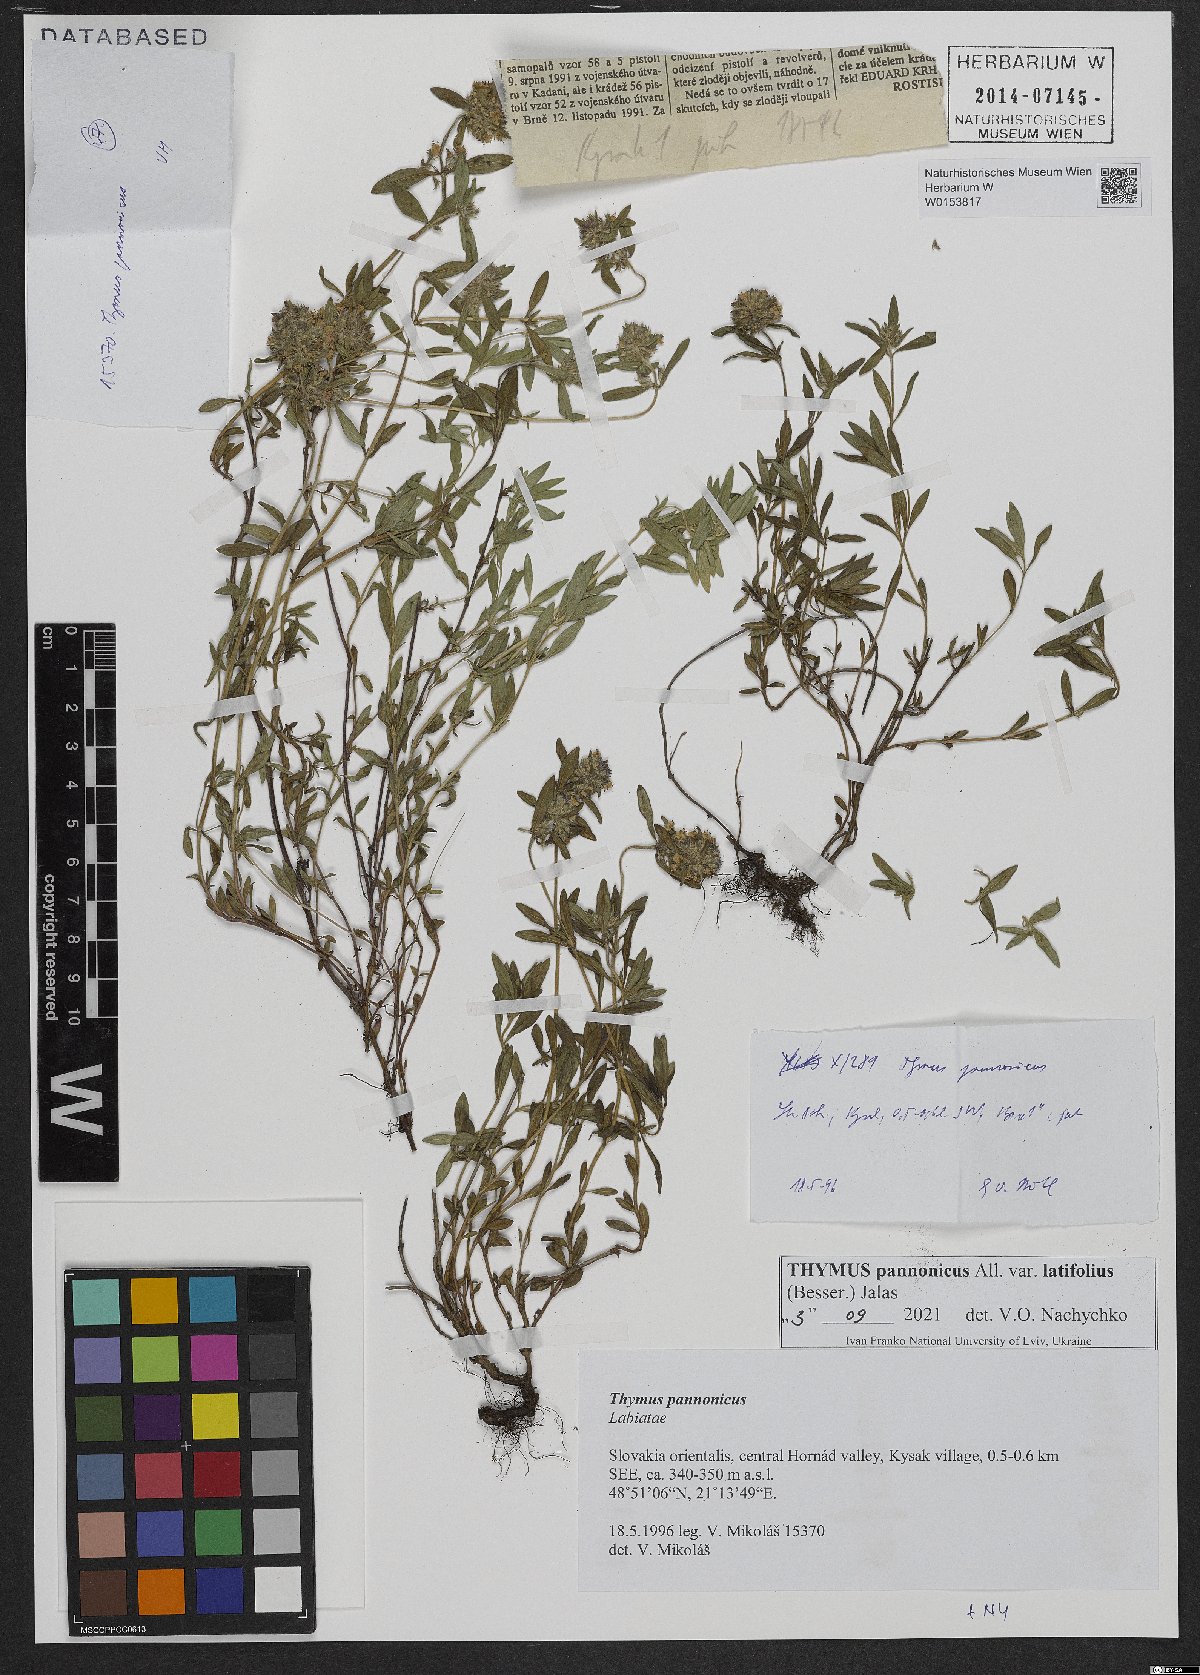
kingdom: Plantae
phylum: Tracheophyta
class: Magnoliopsida
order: Lamiales
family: Lamiaceae
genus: Thymus
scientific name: Thymus pannonicus
